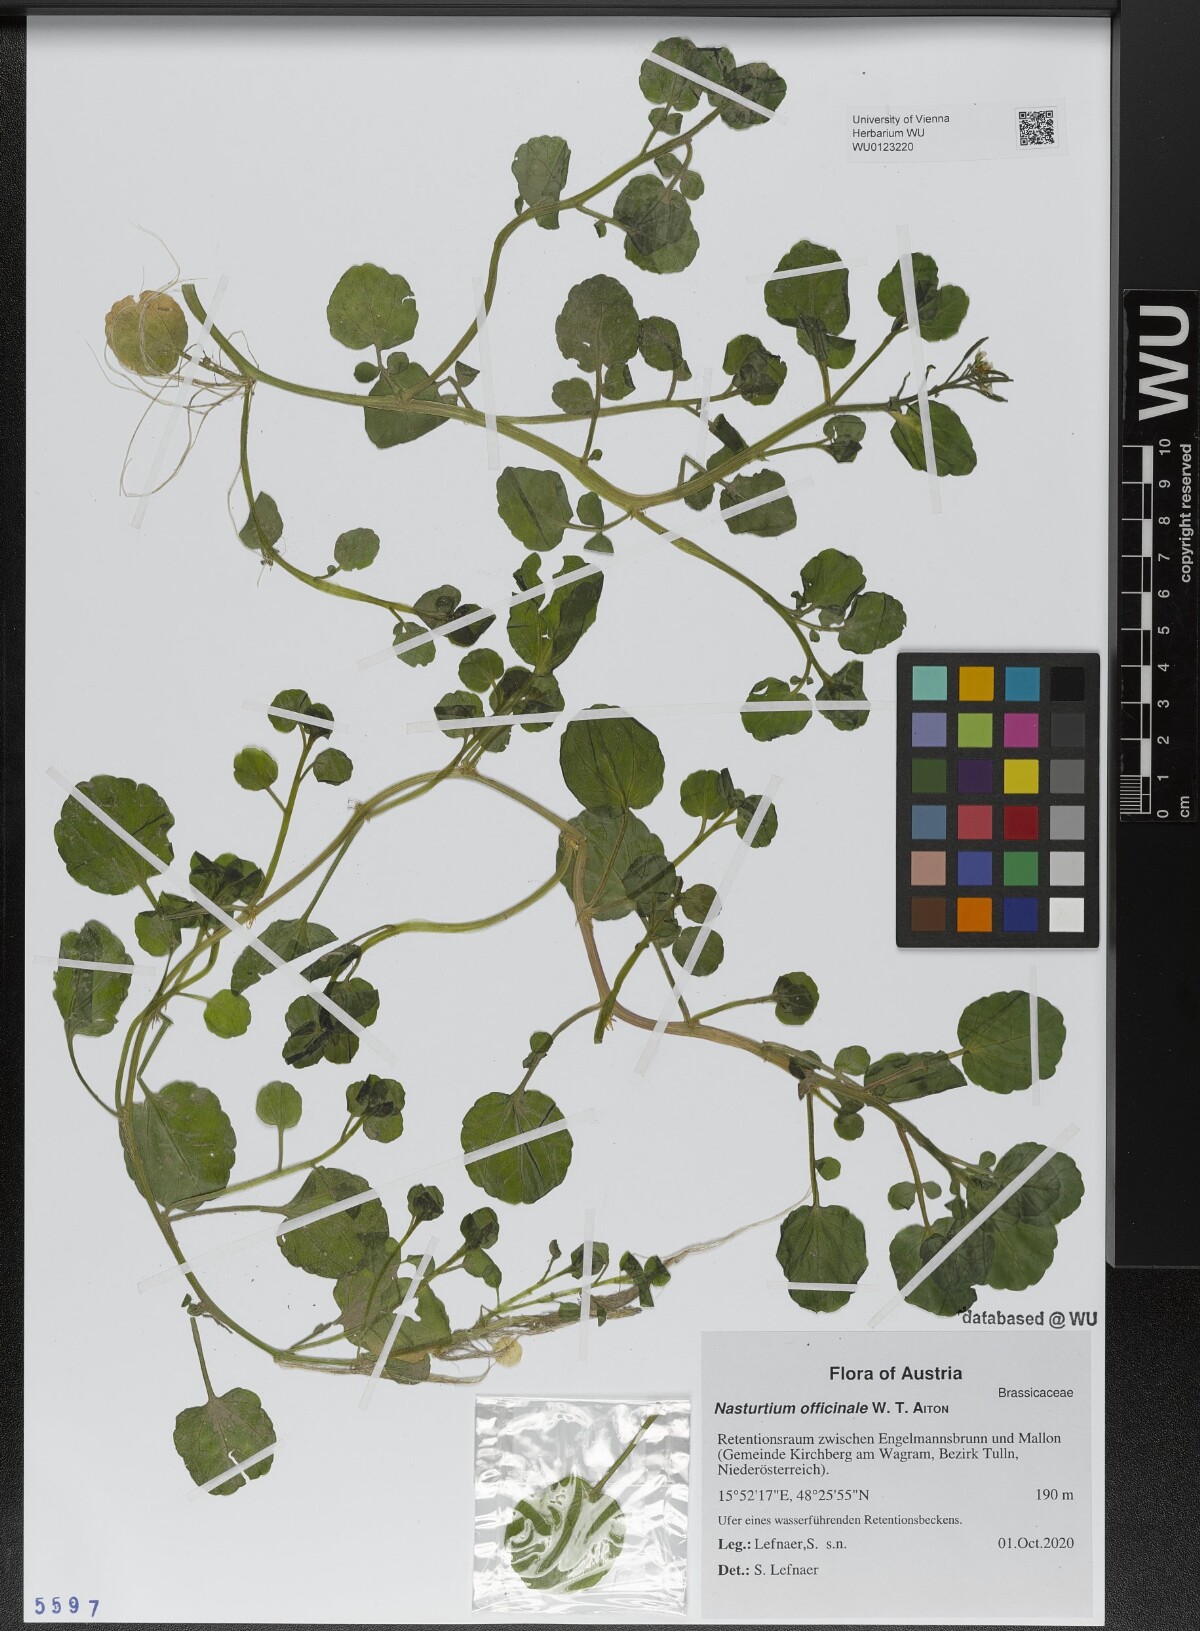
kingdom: Plantae
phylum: Tracheophyta
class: Magnoliopsida
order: Brassicales
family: Brassicaceae
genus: Nasturtium
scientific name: Nasturtium officinale
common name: Watercress
